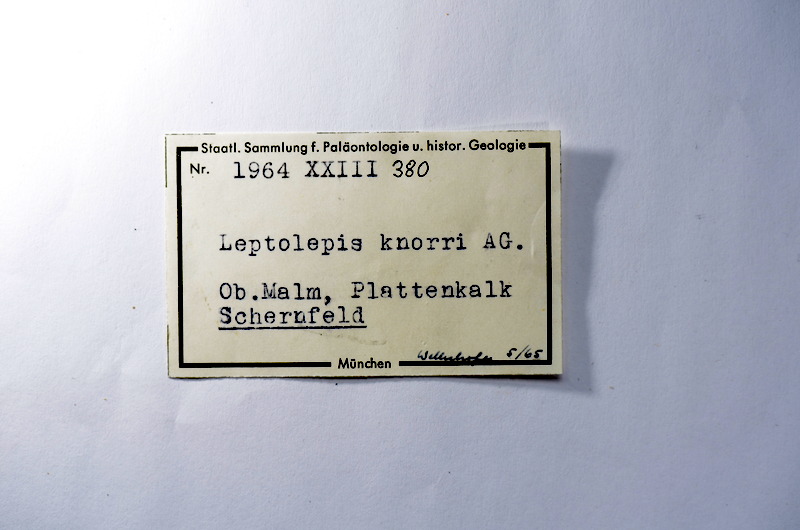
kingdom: Animalia
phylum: Chordata
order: Elopiformes
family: Anaethalionidae
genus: Anaethalion
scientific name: Anaethalion knorri
